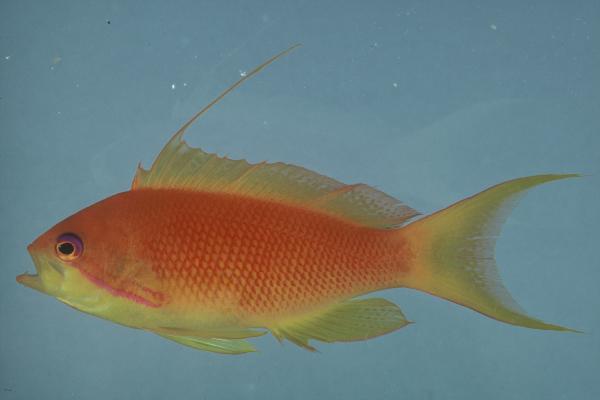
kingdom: Animalia
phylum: Chordata
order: Perciformes
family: Serranidae
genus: Pseudanthias
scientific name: Pseudanthias squamipinnis
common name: Scalefin anthias
